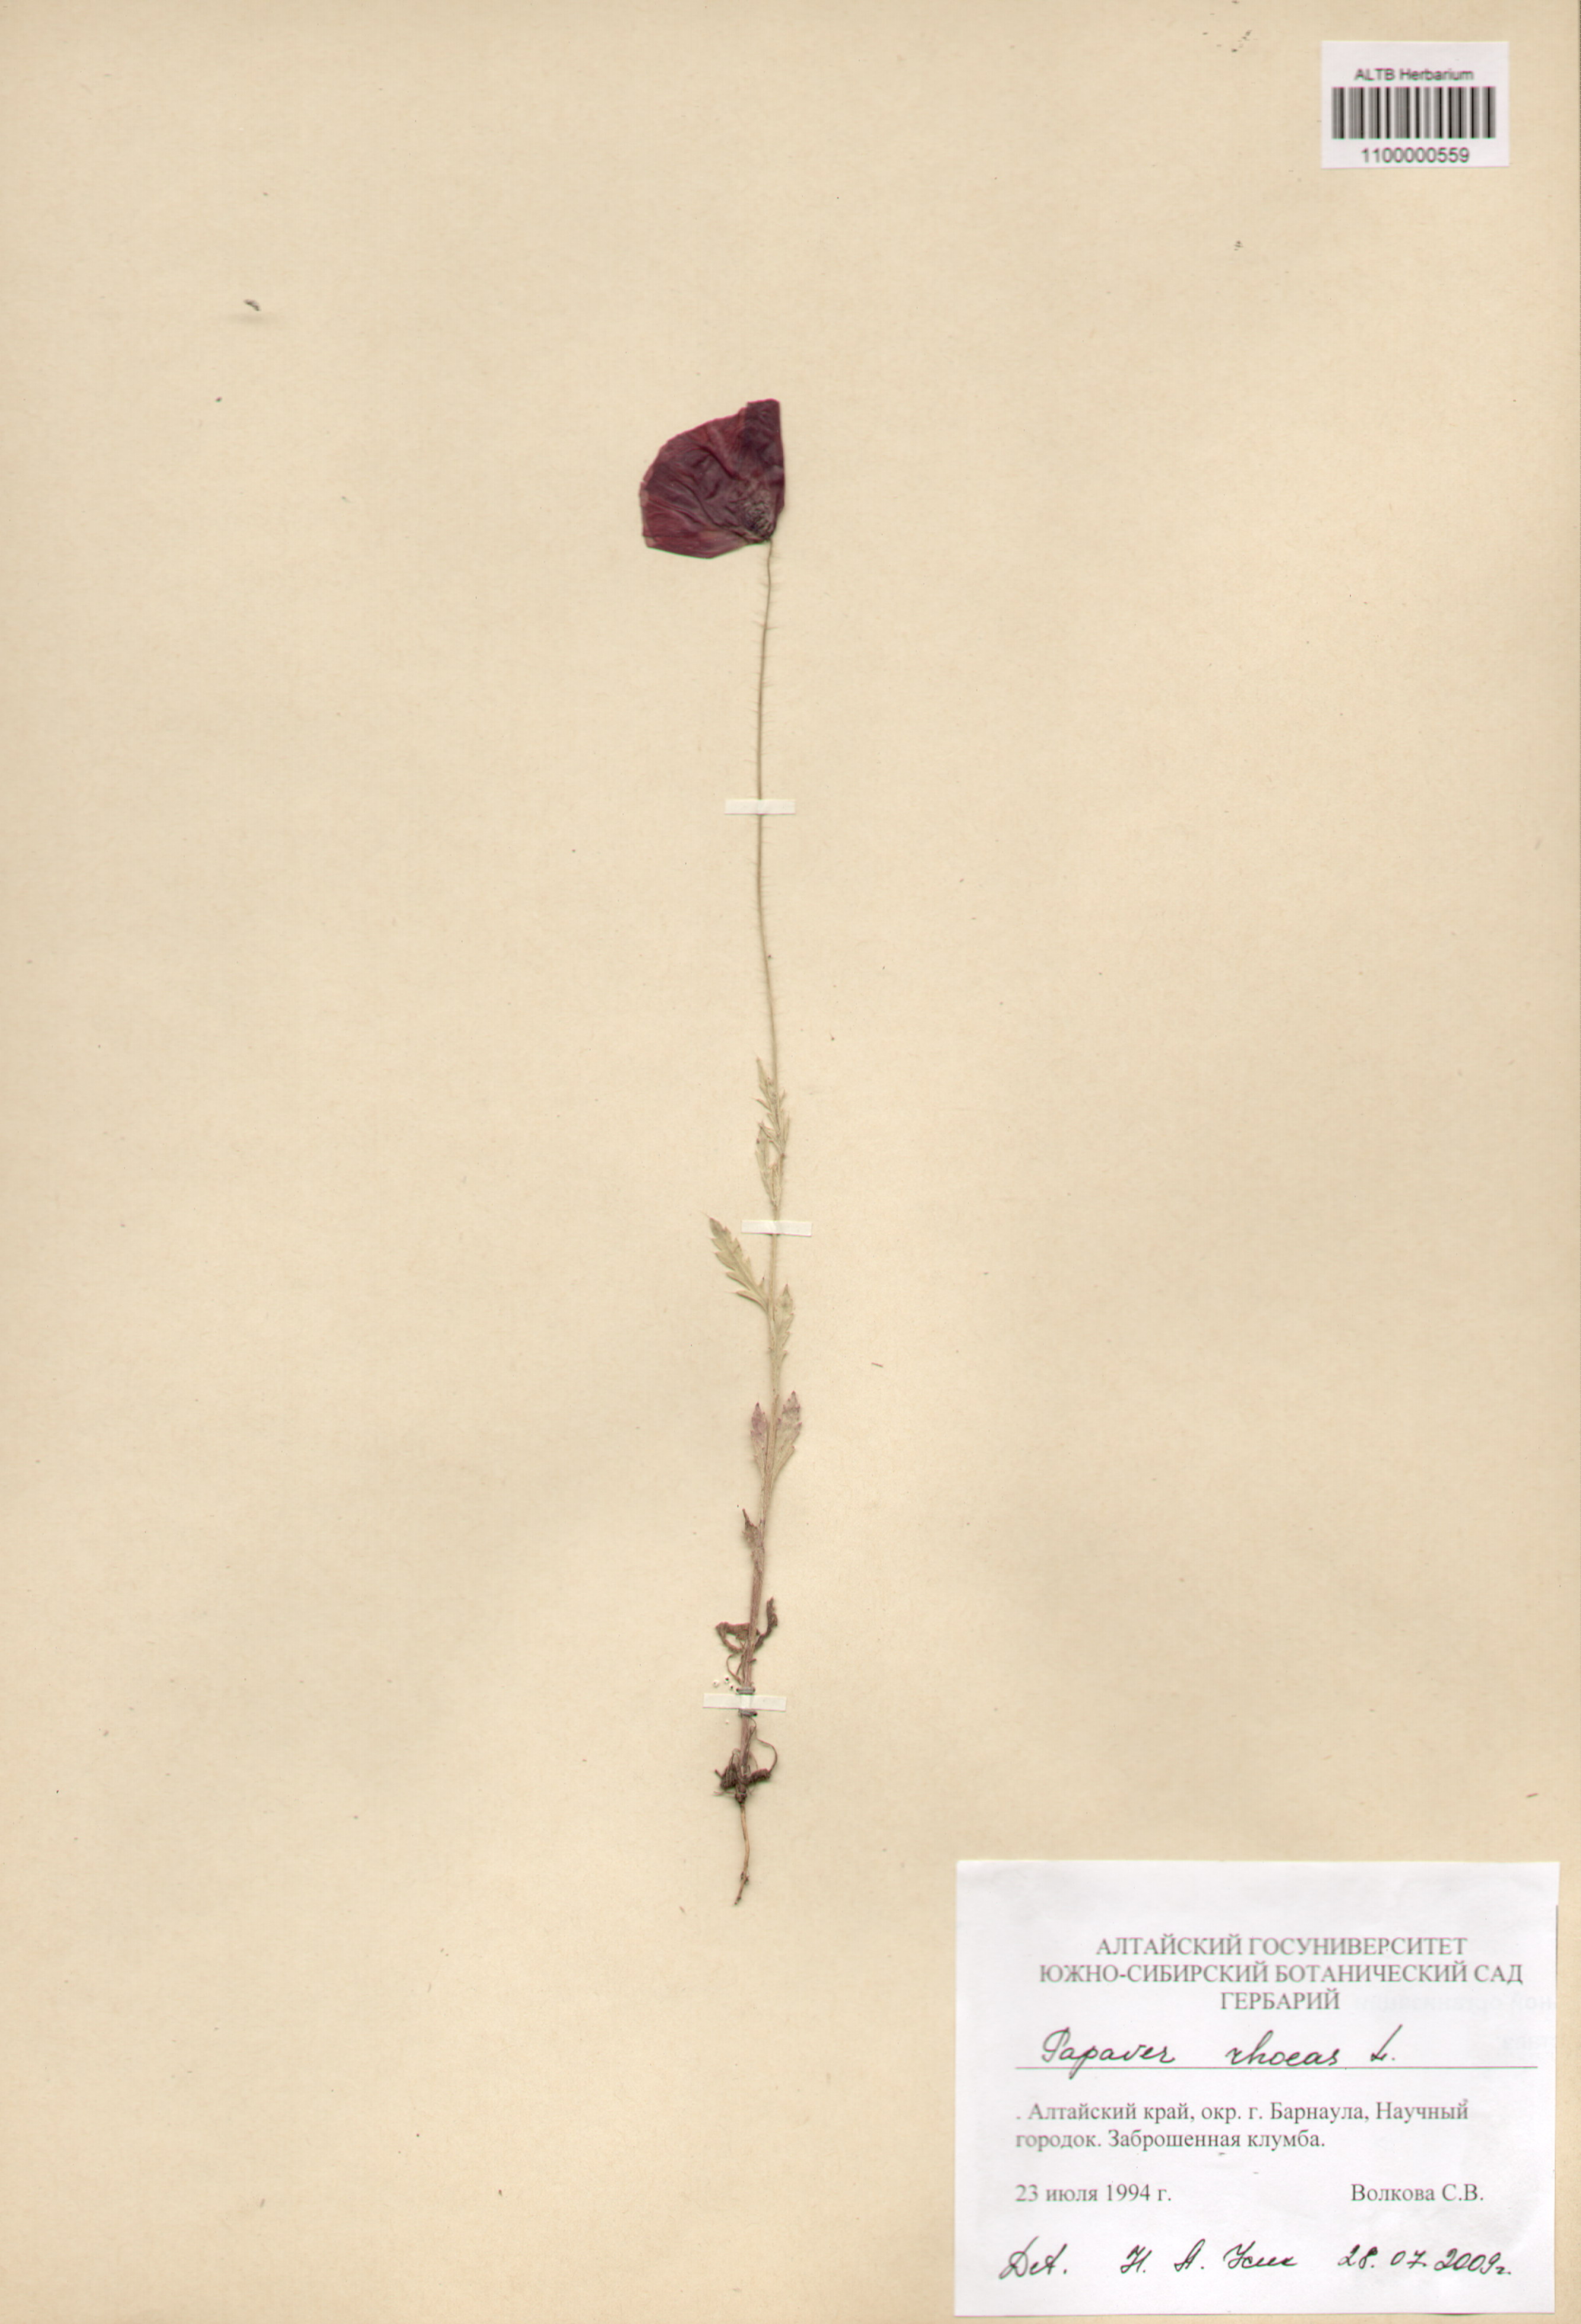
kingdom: Plantae
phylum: Tracheophyta
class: Magnoliopsida
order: Ranunculales
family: Papaveraceae
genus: Papaver
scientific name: Papaver rhoeas
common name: Corn poppy
